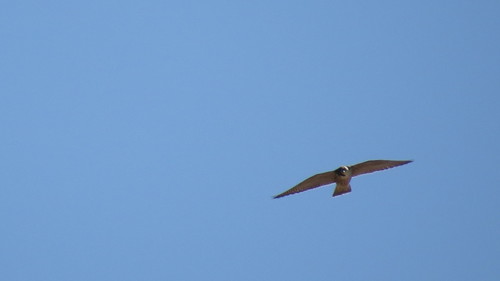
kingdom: Animalia
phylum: Chordata
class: Aves
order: Falconiformes
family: Falconidae
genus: Falco
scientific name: Falco peregrinus
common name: Peregrine falcon
